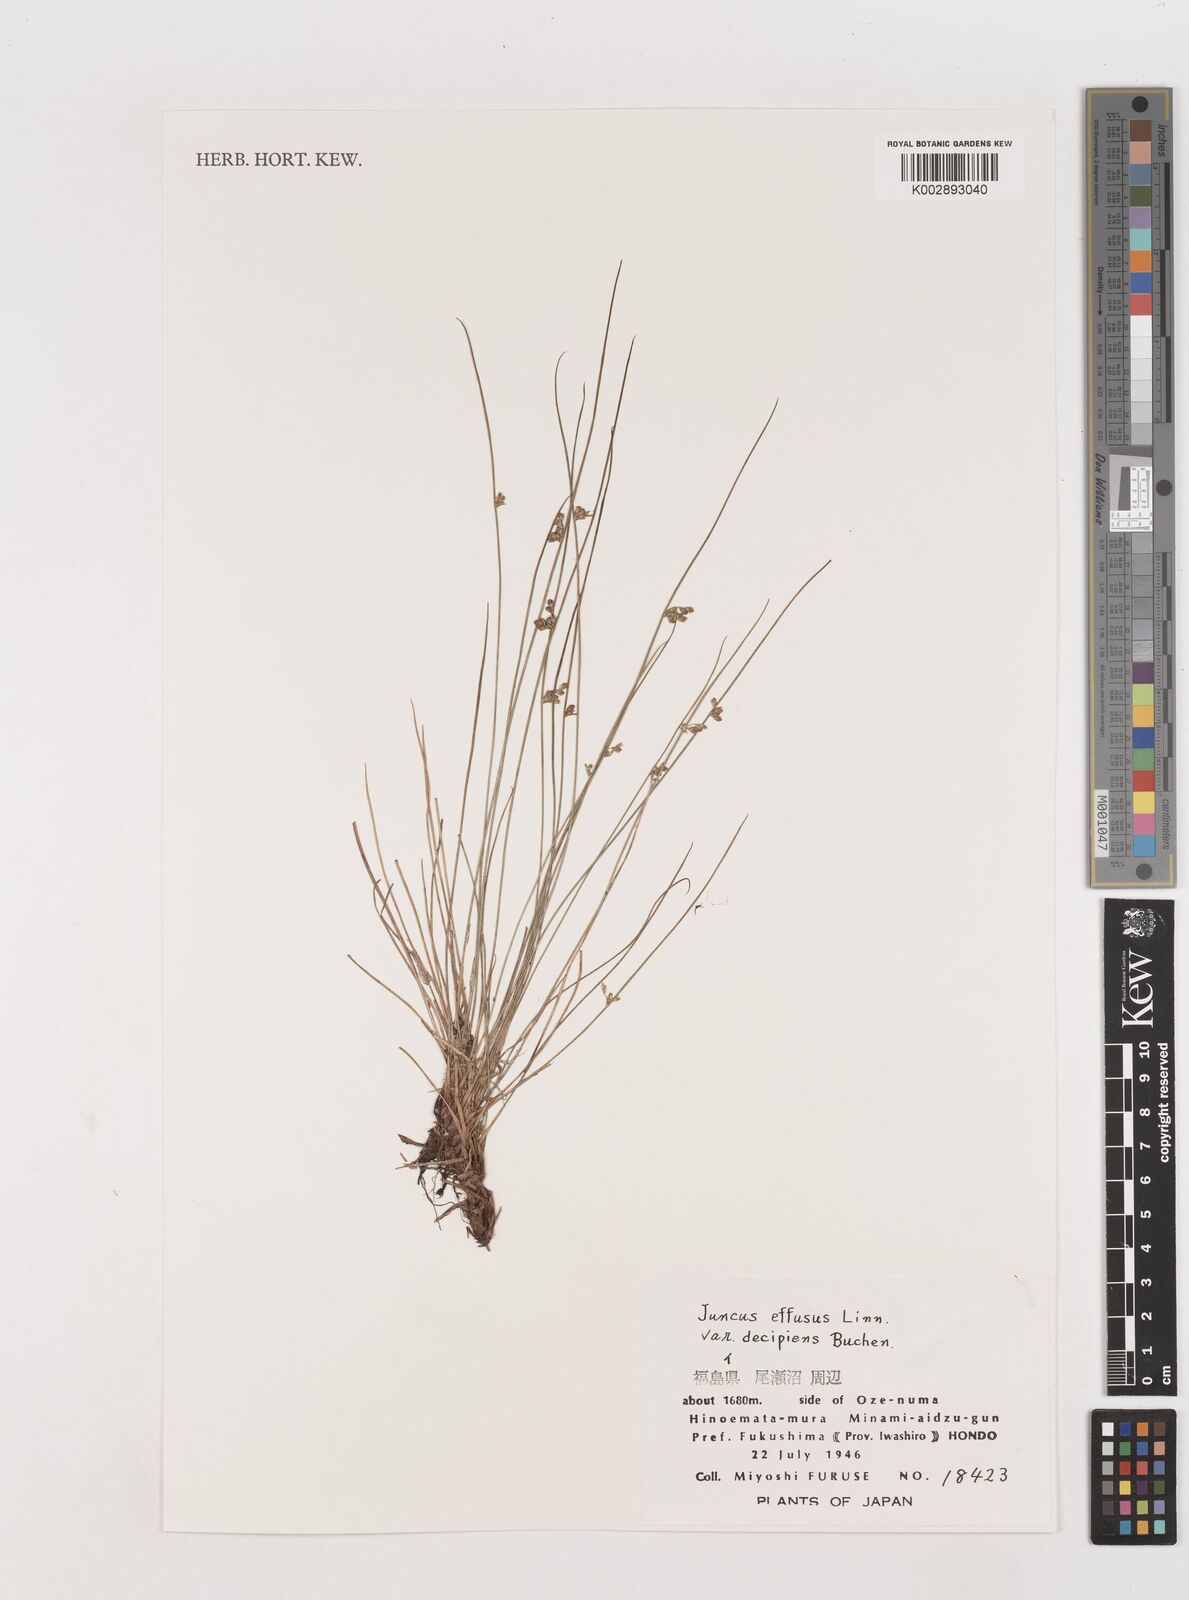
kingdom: Plantae
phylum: Tracheophyta
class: Liliopsida
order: Poales
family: Juncaceae
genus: Juncus
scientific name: Juncus decipiens
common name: Lamp rush
